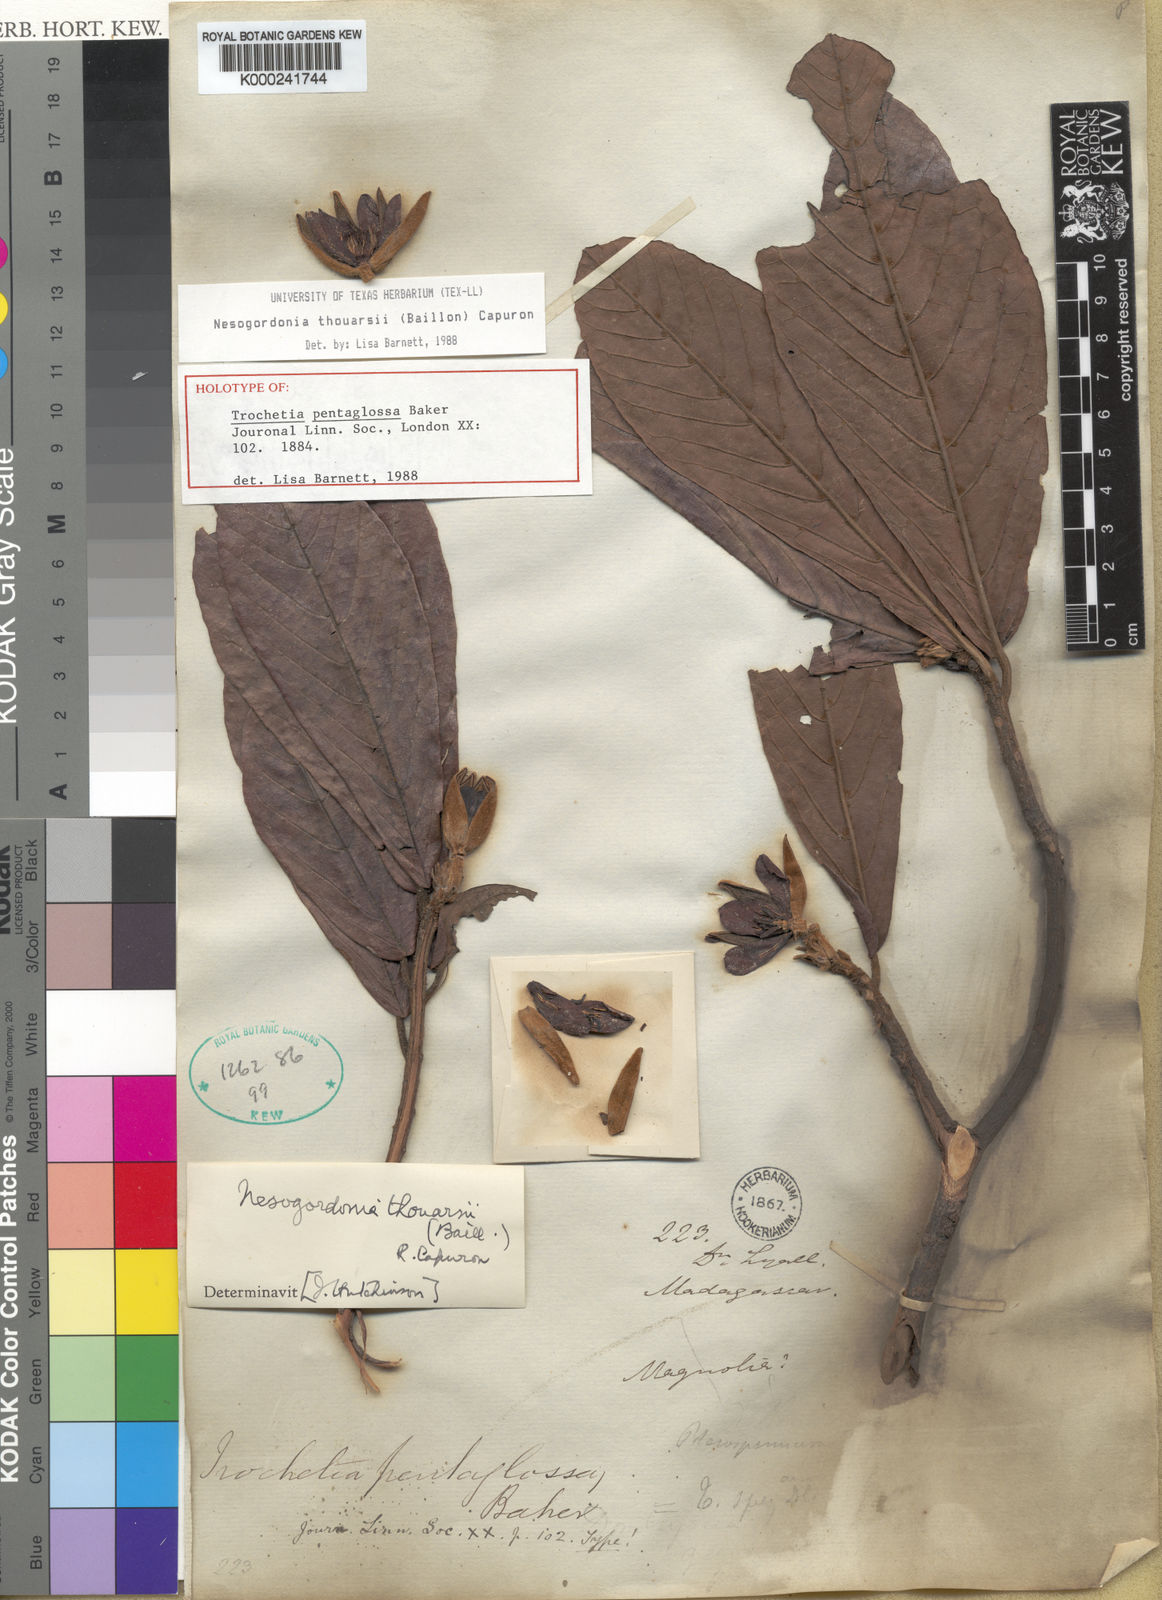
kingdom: Plantae
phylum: Tracheophyta
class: Magnoliopsida
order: Malvales
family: Malvaceae
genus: Nesogordonia
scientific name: Nesogordonia
